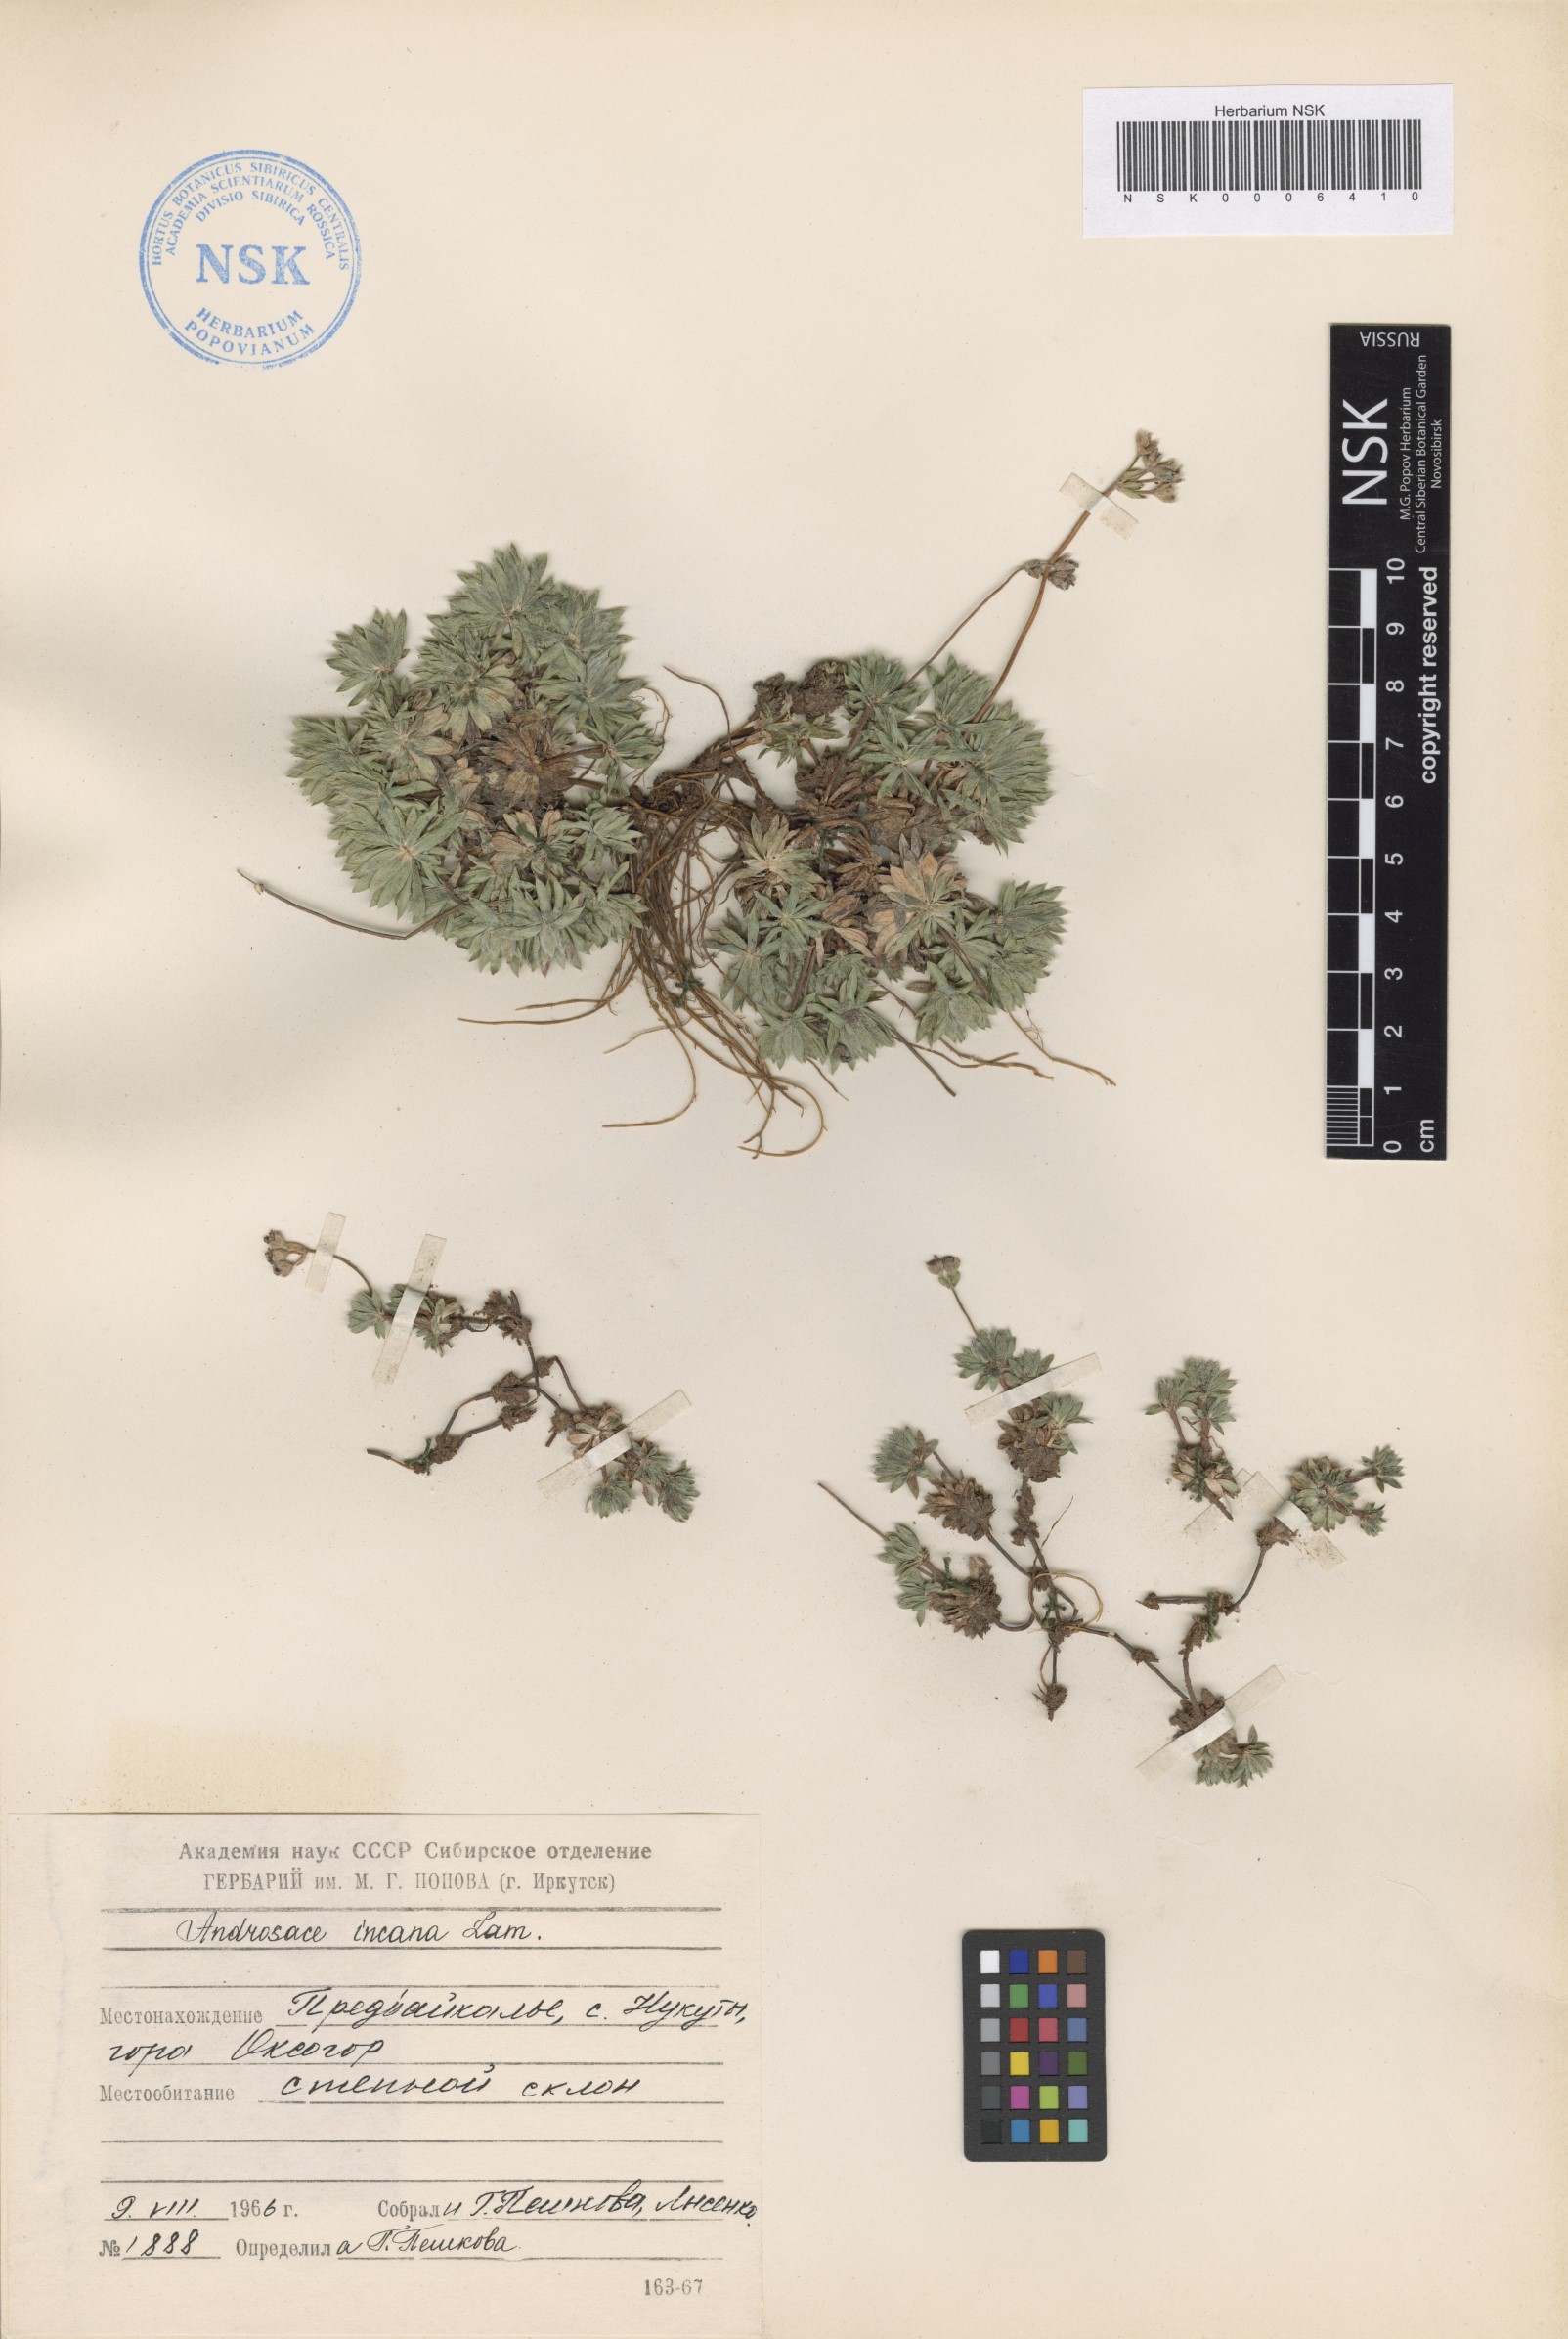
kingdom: Plantae
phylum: Tracheophyta
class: Magnoliopsida
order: Ericales
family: Primulaceae
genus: Androsace
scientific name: Androsace incana
